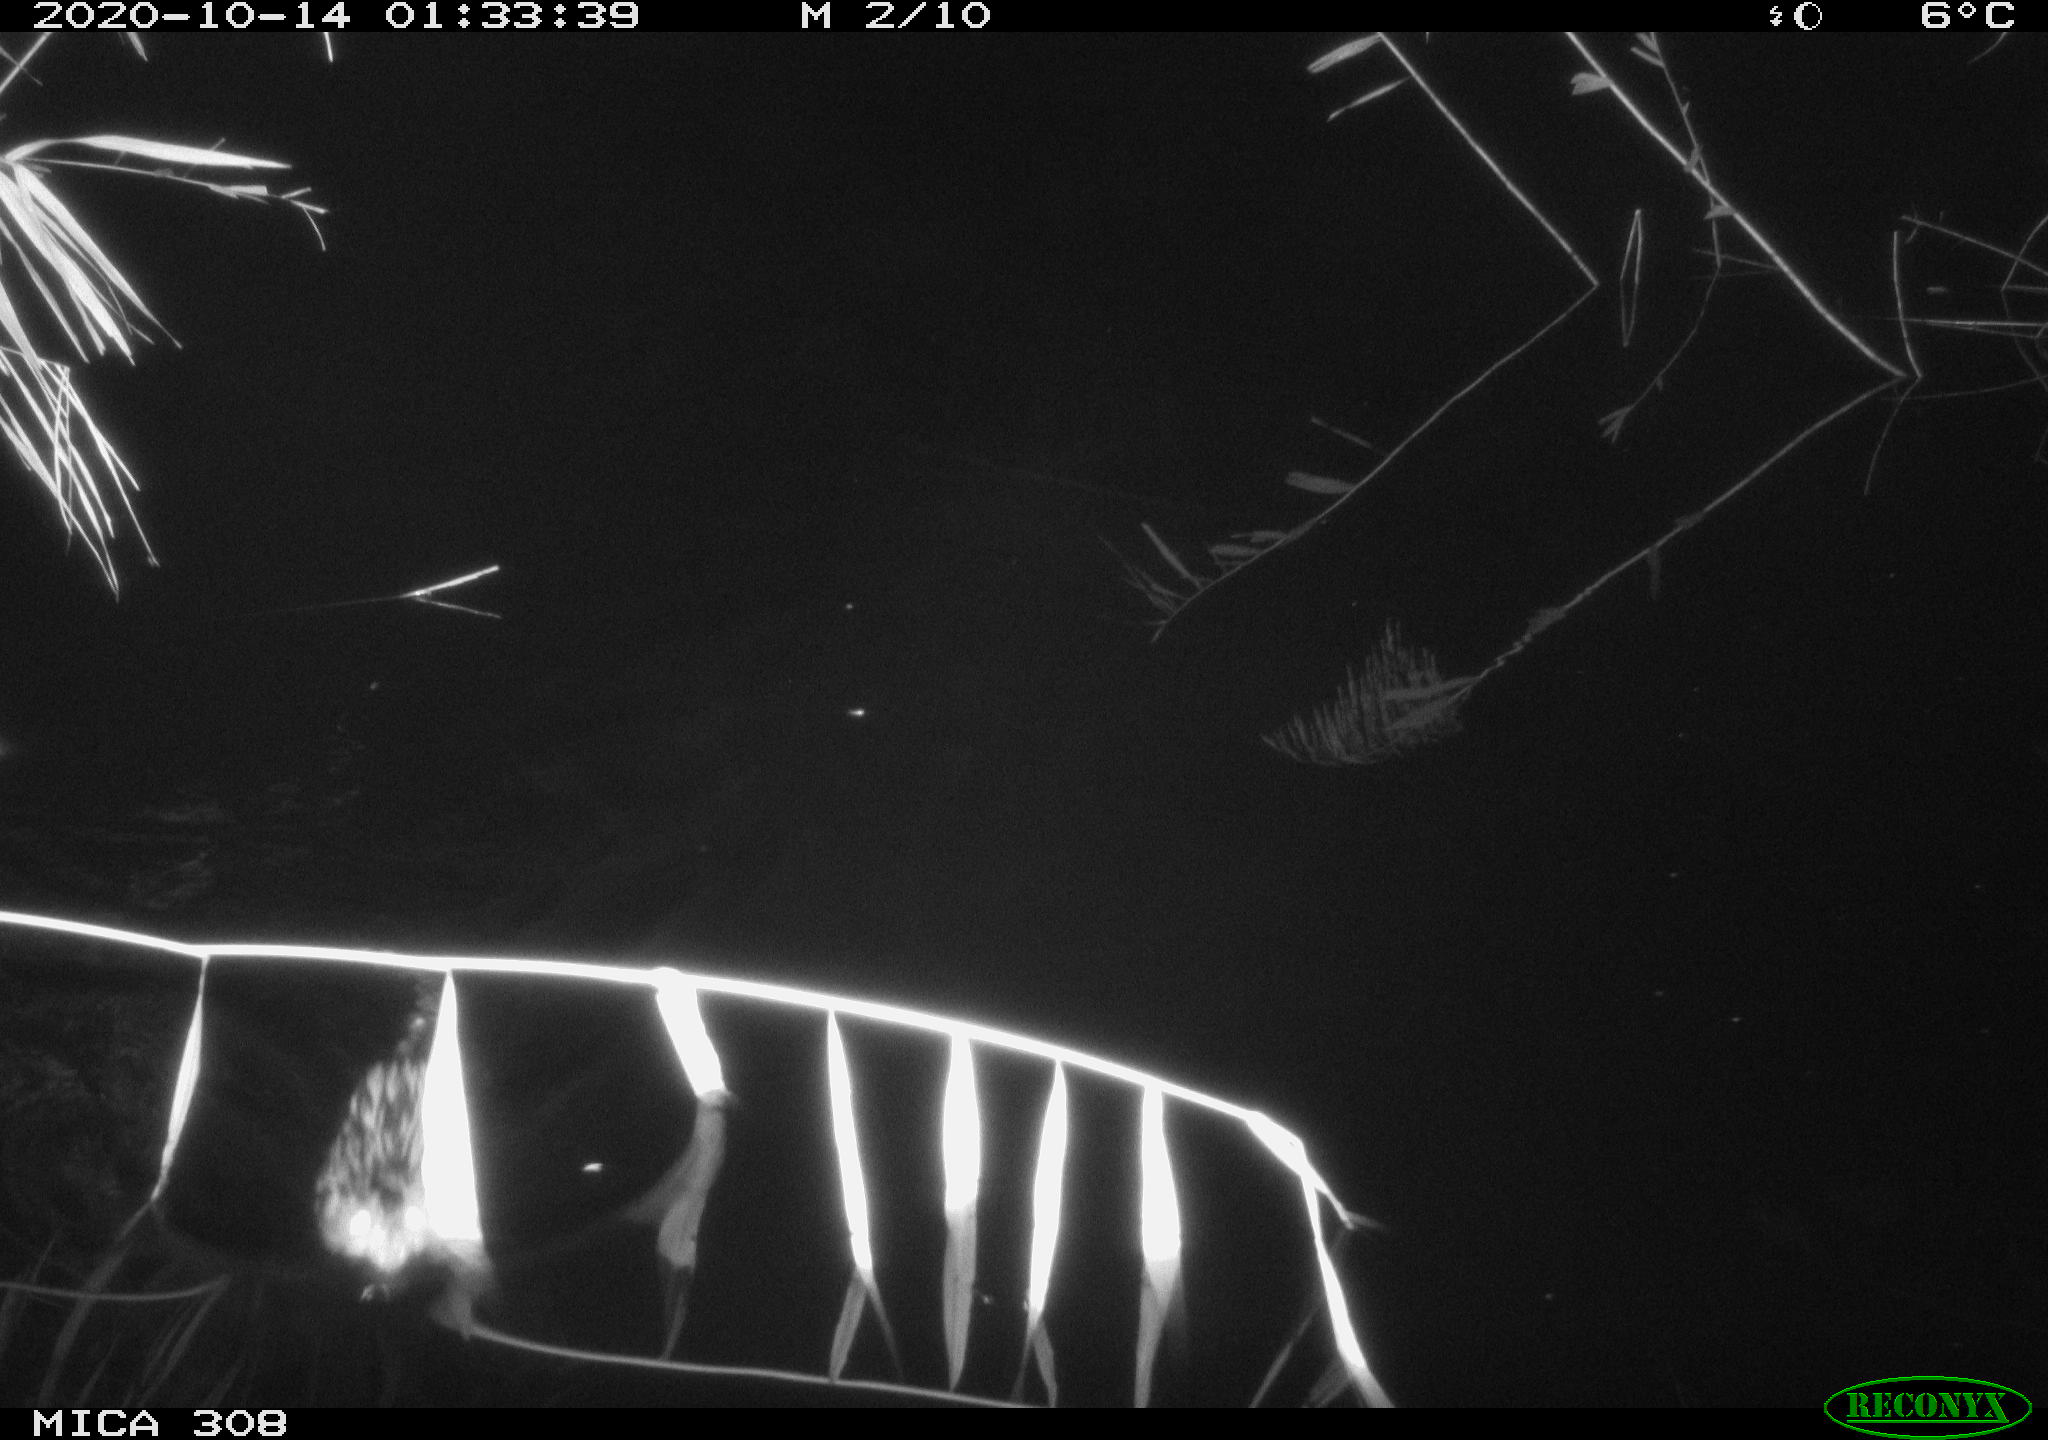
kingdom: Animalia
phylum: Chordata
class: Mammalia
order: Rodentia
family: Cricetidae
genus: Ondatra
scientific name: Ondatra zibethicus
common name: Muskrat
